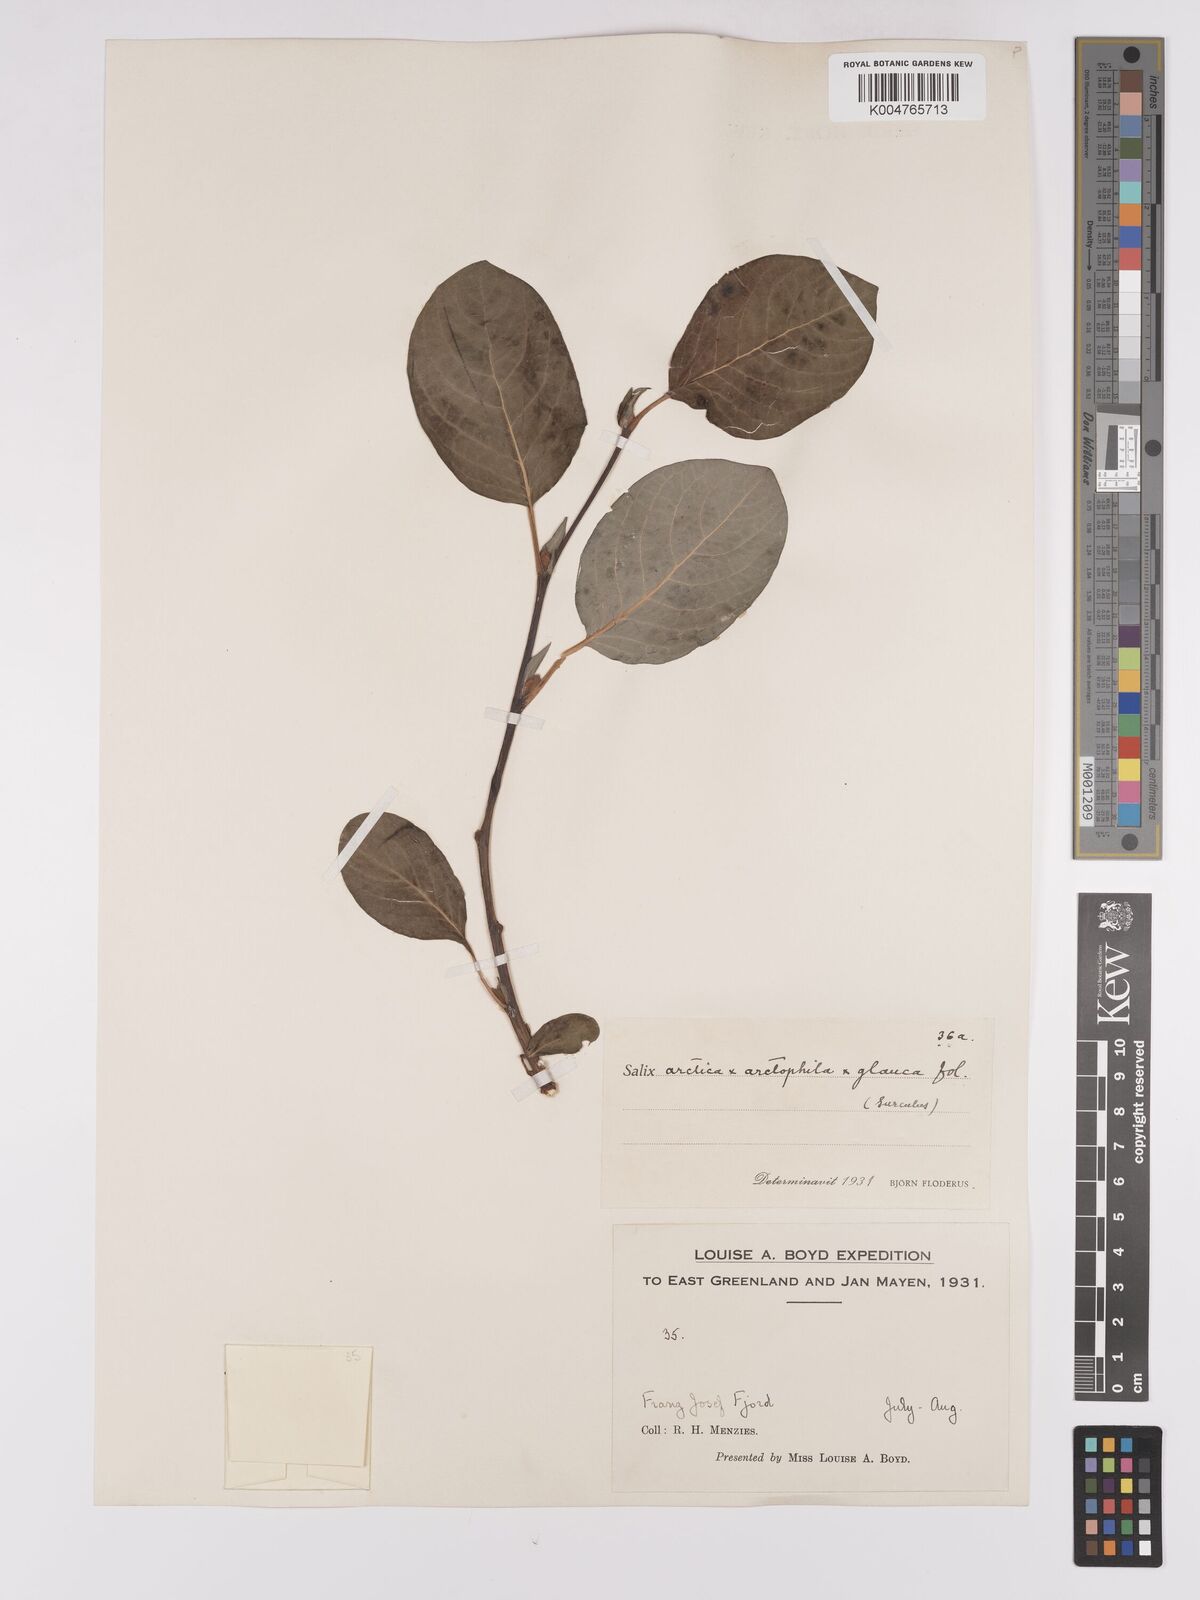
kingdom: Plantae
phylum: Tracheophyta
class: Magnoliopsida
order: Malpighiales
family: Salicaceae
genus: Salix
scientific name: Salix arctophila
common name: Greenland willow
